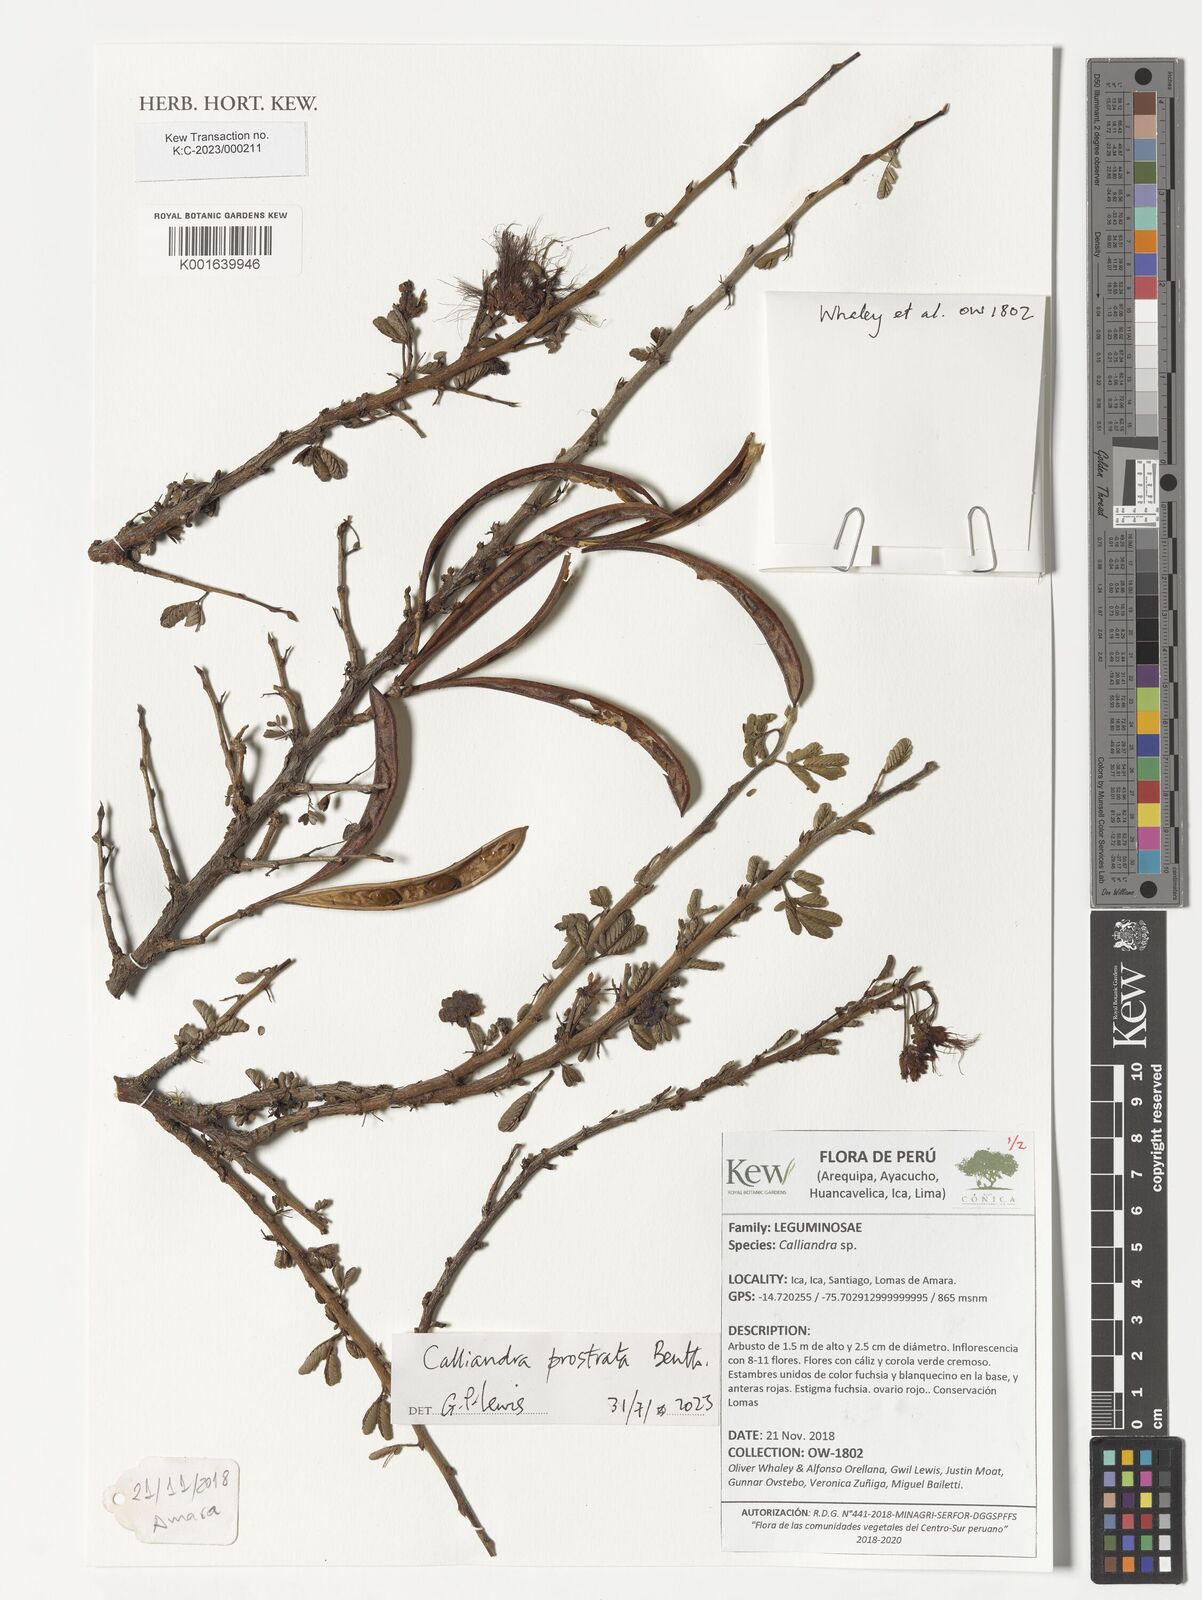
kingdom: Plantae
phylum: Tracheophyta
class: Magnoliopsida
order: Fabales
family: Fabaceae
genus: Calliandra
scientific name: Calliandra taxifolia
